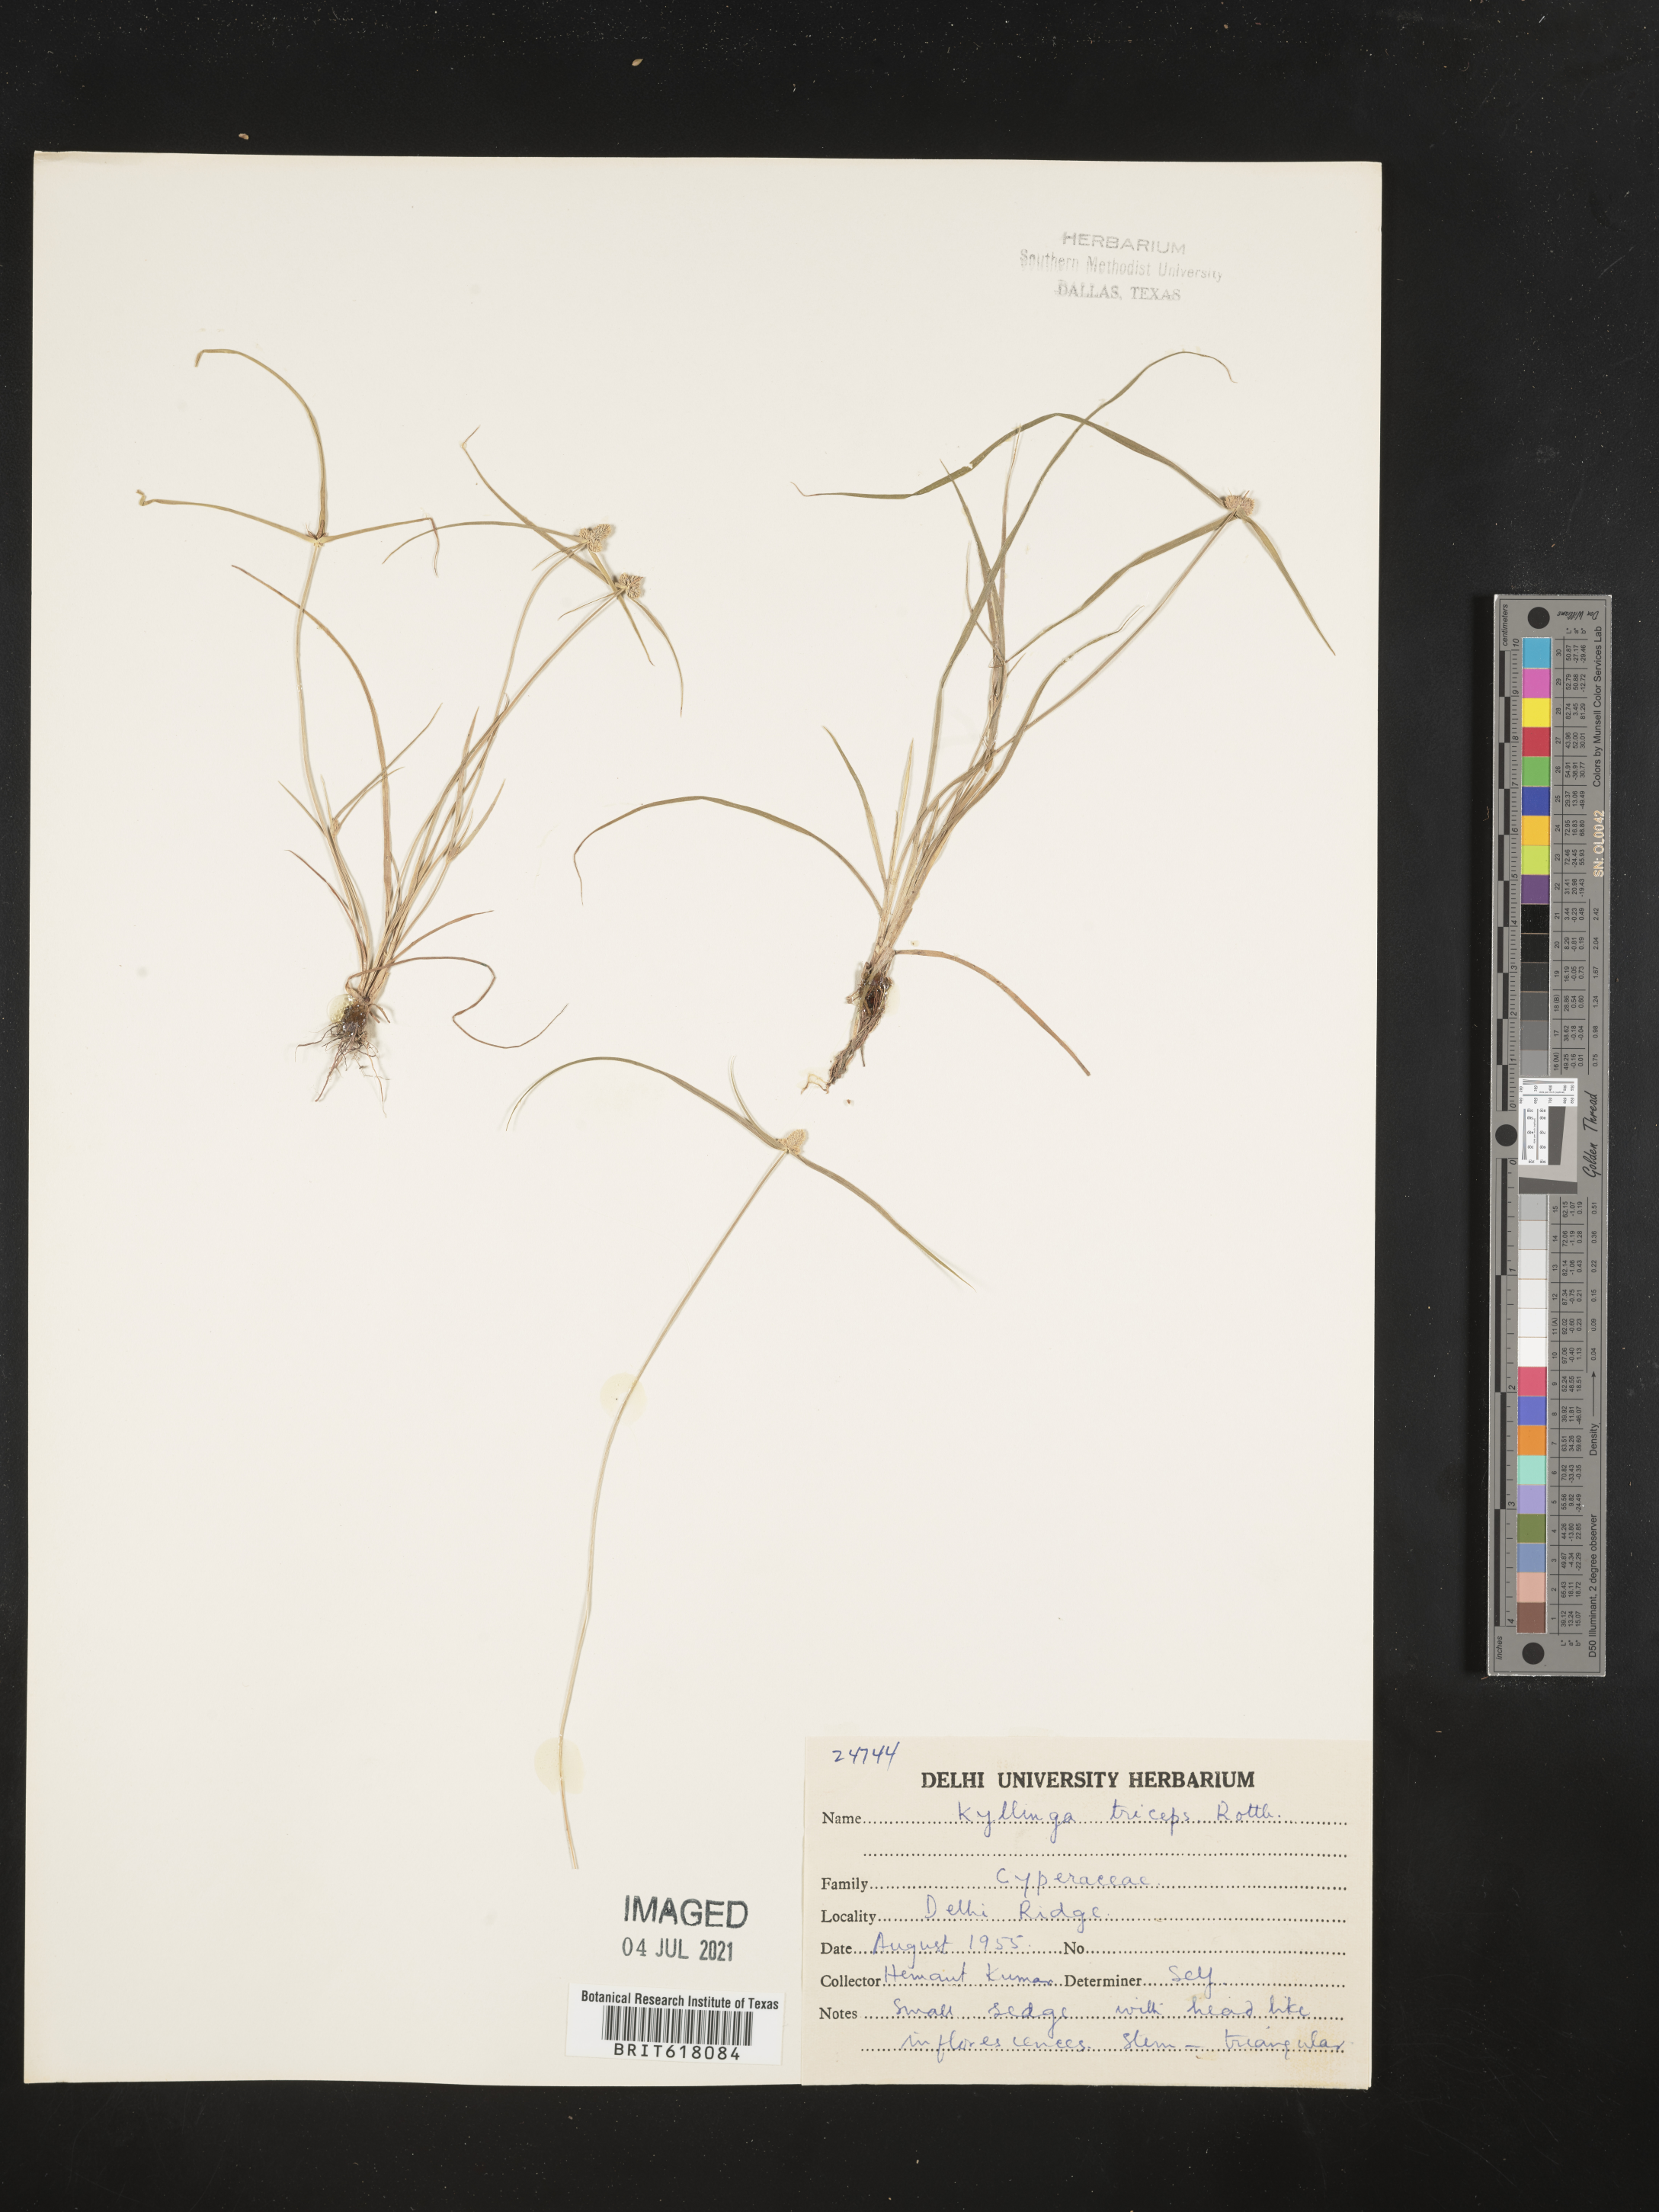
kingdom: Plantae
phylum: Tracheophyta
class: Liliopsida
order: Poales
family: Cyperaceae
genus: Cyperus
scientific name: Cyperus dubius
